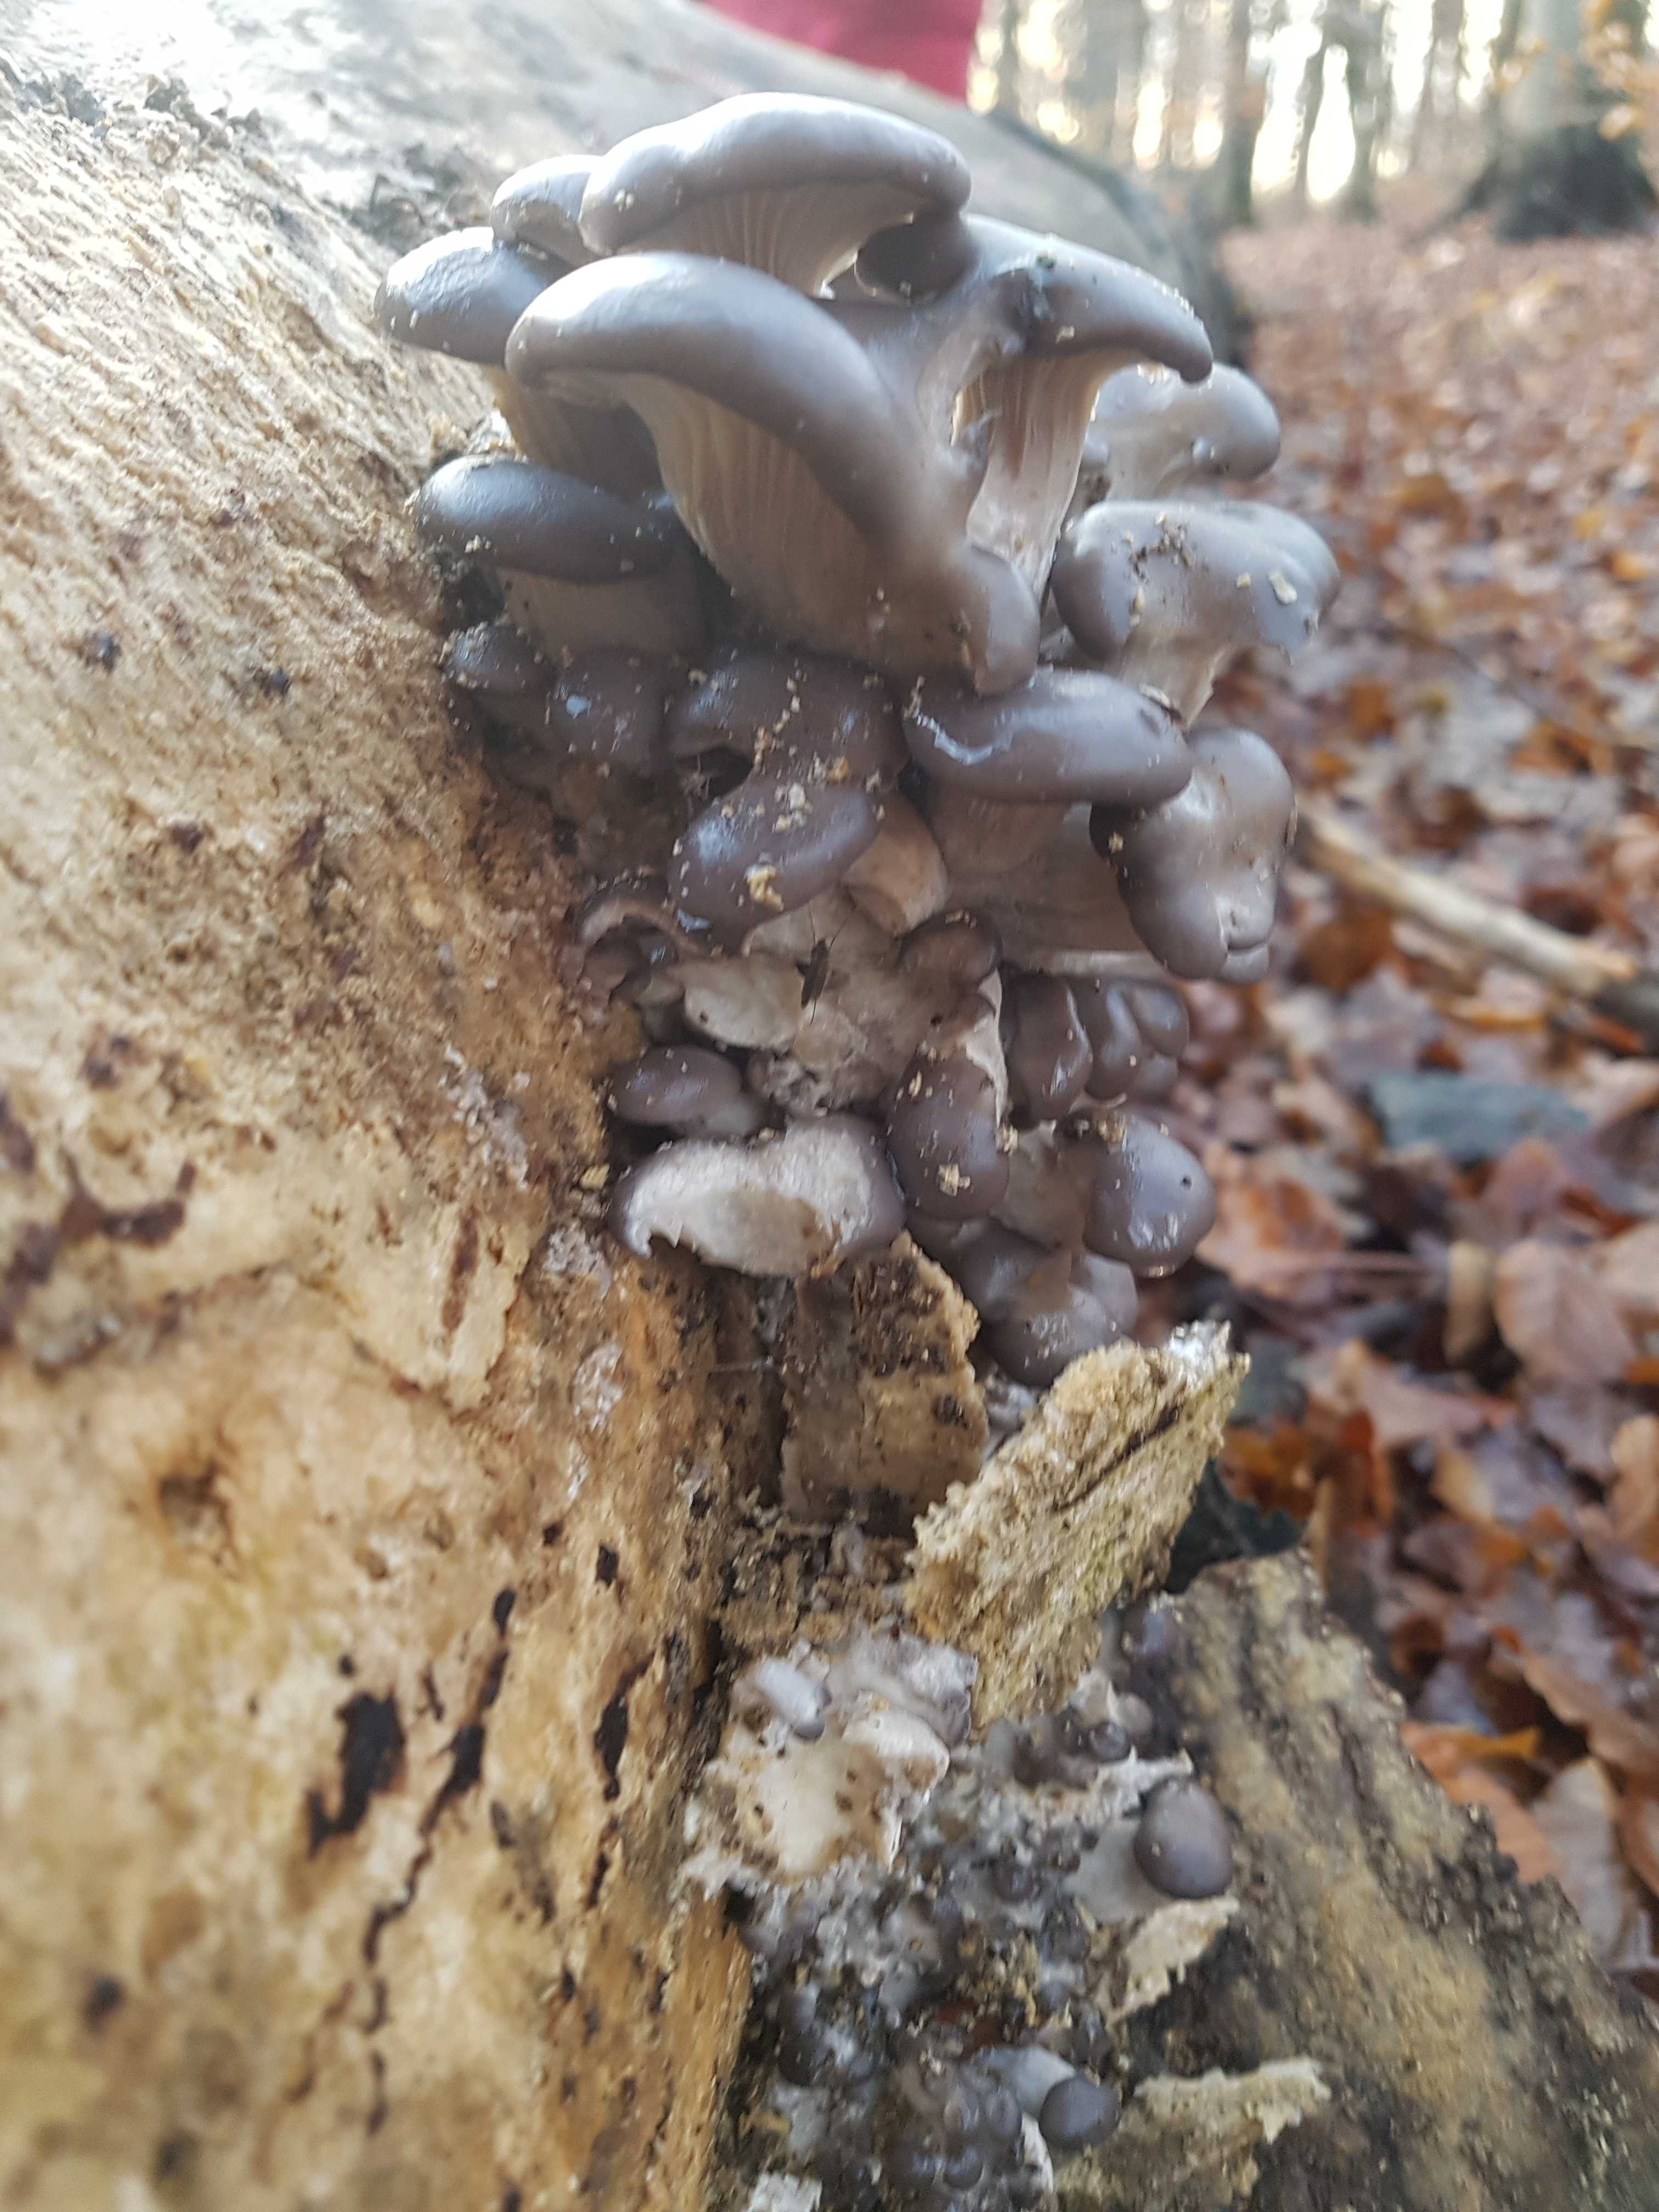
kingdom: Fungi
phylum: Basidiomycota
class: Agaricomycetes
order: Agaricales
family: Pleurotaceae
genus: Pleurotus
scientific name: Pleurotus ostreatus
